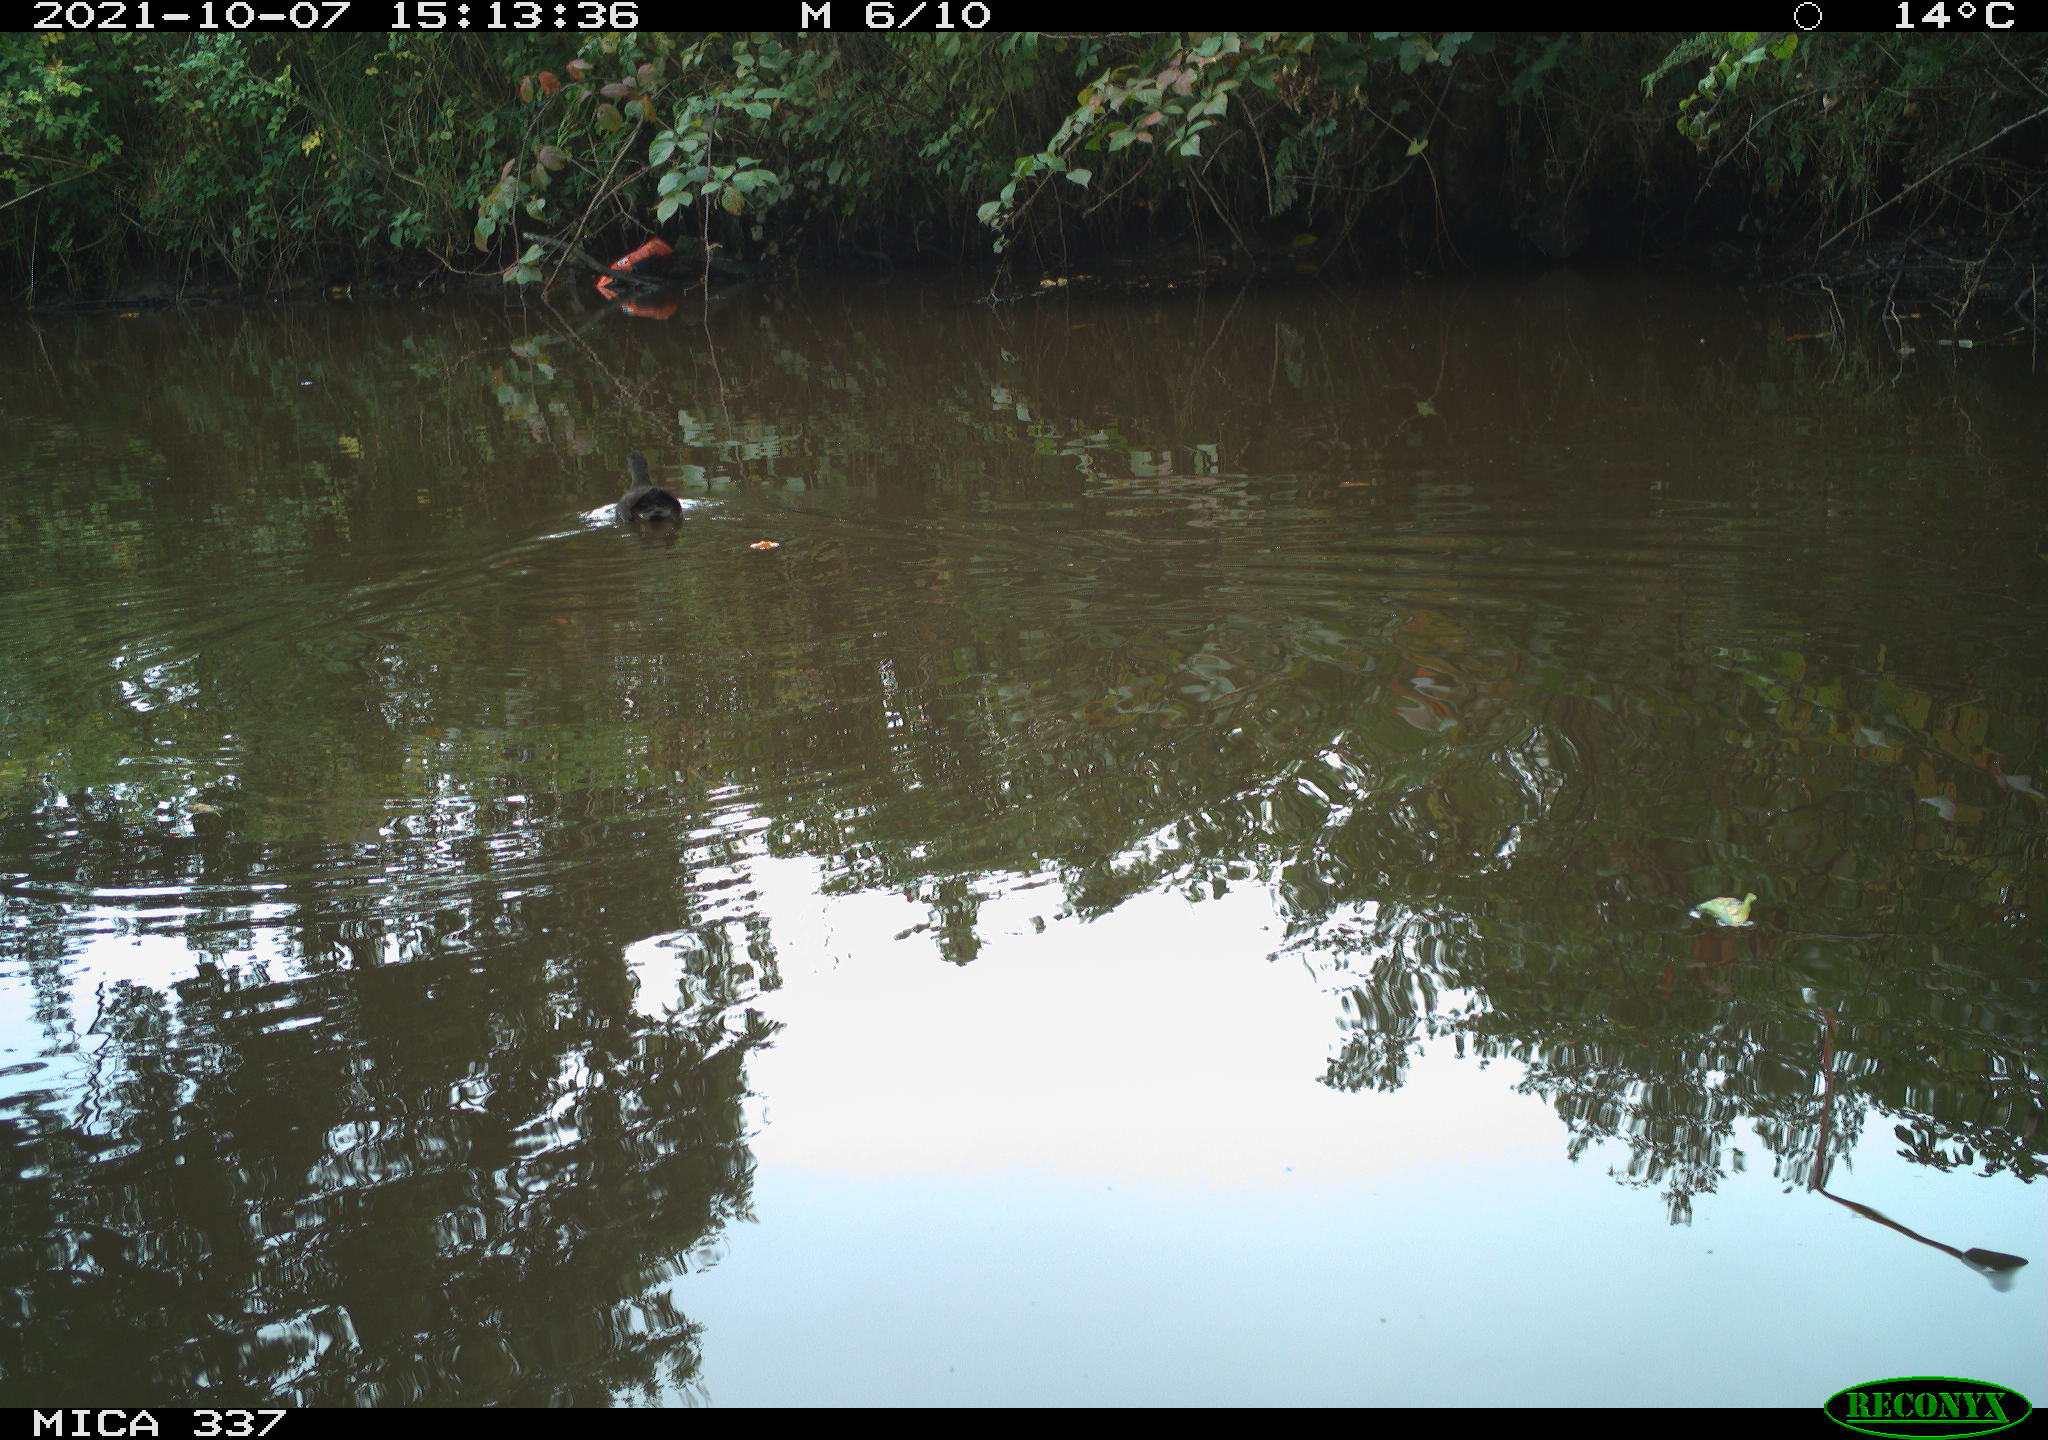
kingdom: Animalia
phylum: Chordata
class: Aves
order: Gruiformes
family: Rallidae
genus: Gallinula
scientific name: Gallinula chloropus
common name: Common moorhen
